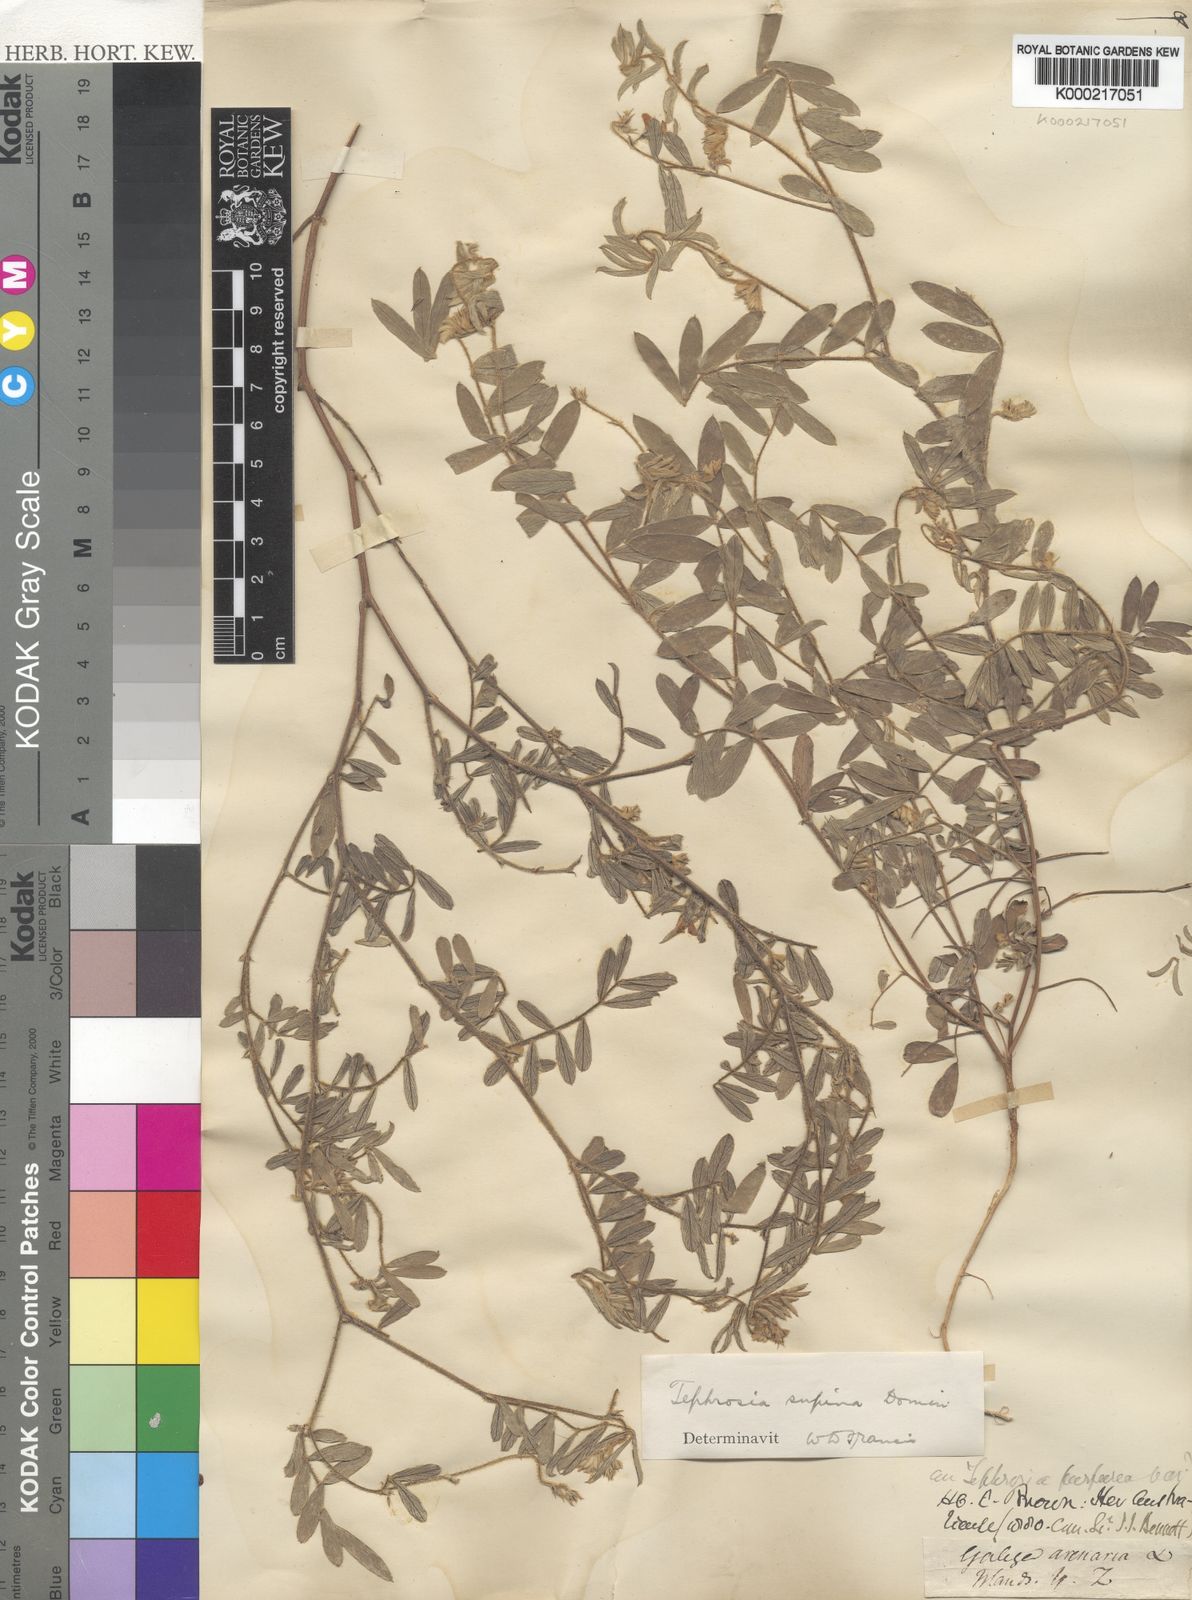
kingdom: Plantae
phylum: Tracheophyta
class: Magnoliopsida
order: Fabales
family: Fabaceae
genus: Tephrosia
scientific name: Tephrosia supina
